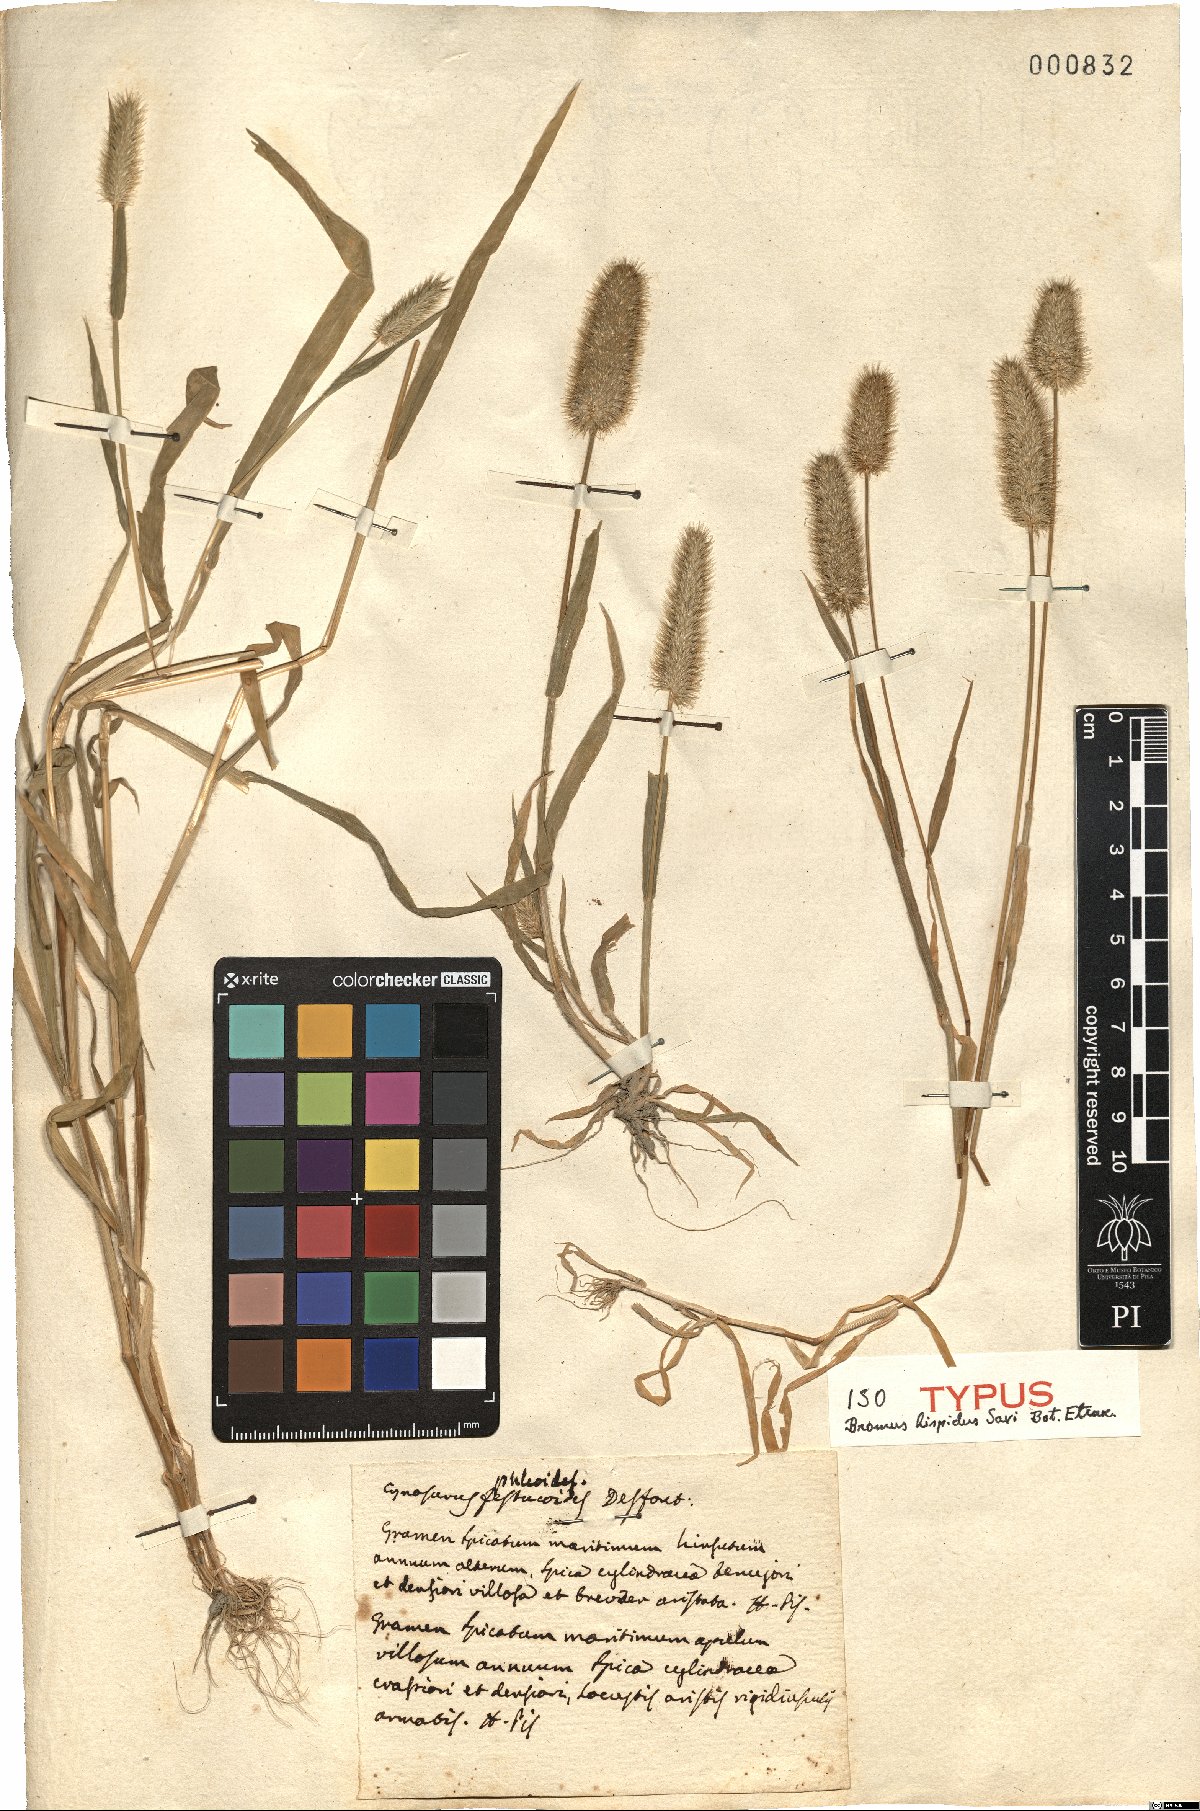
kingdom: Plantae
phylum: Tracheophyta
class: Liliopsida
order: Poales
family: Poaceae
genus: Rostraria
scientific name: Rostraria hispida
